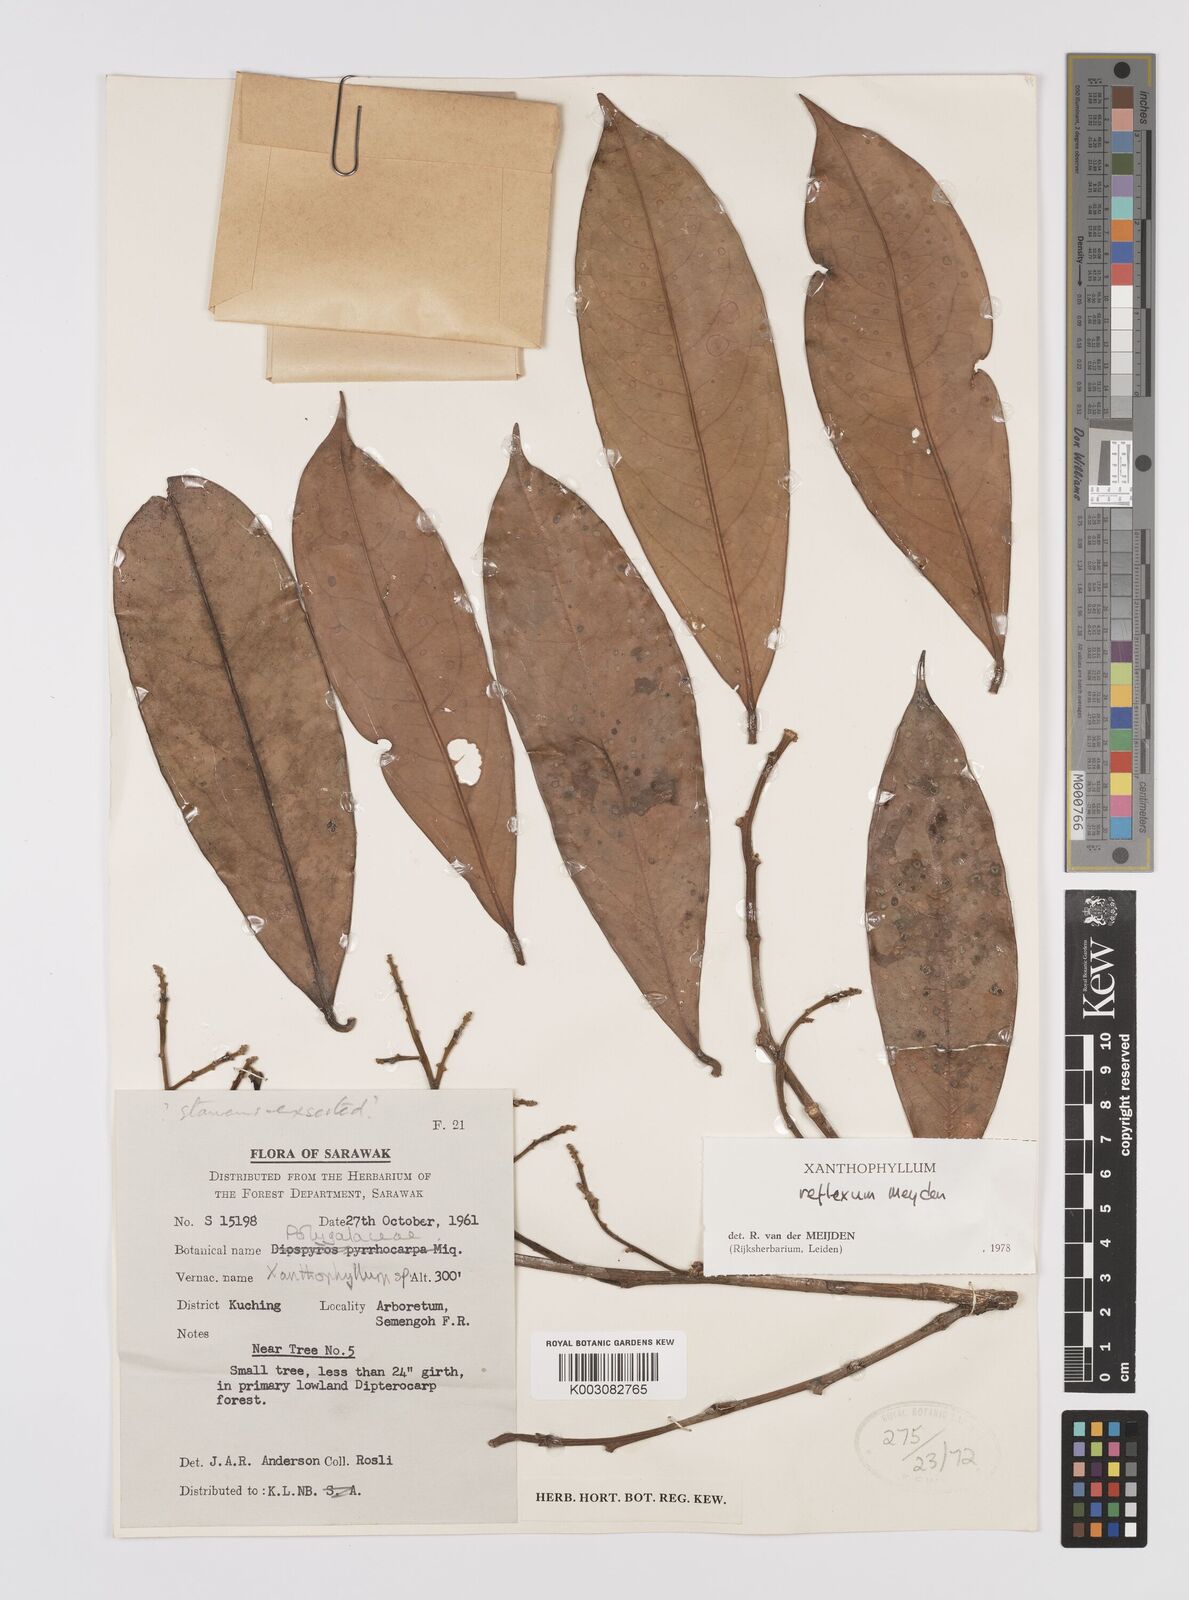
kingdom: Plantae
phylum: Tracheophyta
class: Magnoliopsida
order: Fabales
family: Polygalaceae
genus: Xanthophyllum
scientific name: Xanthophyllum reflexum
